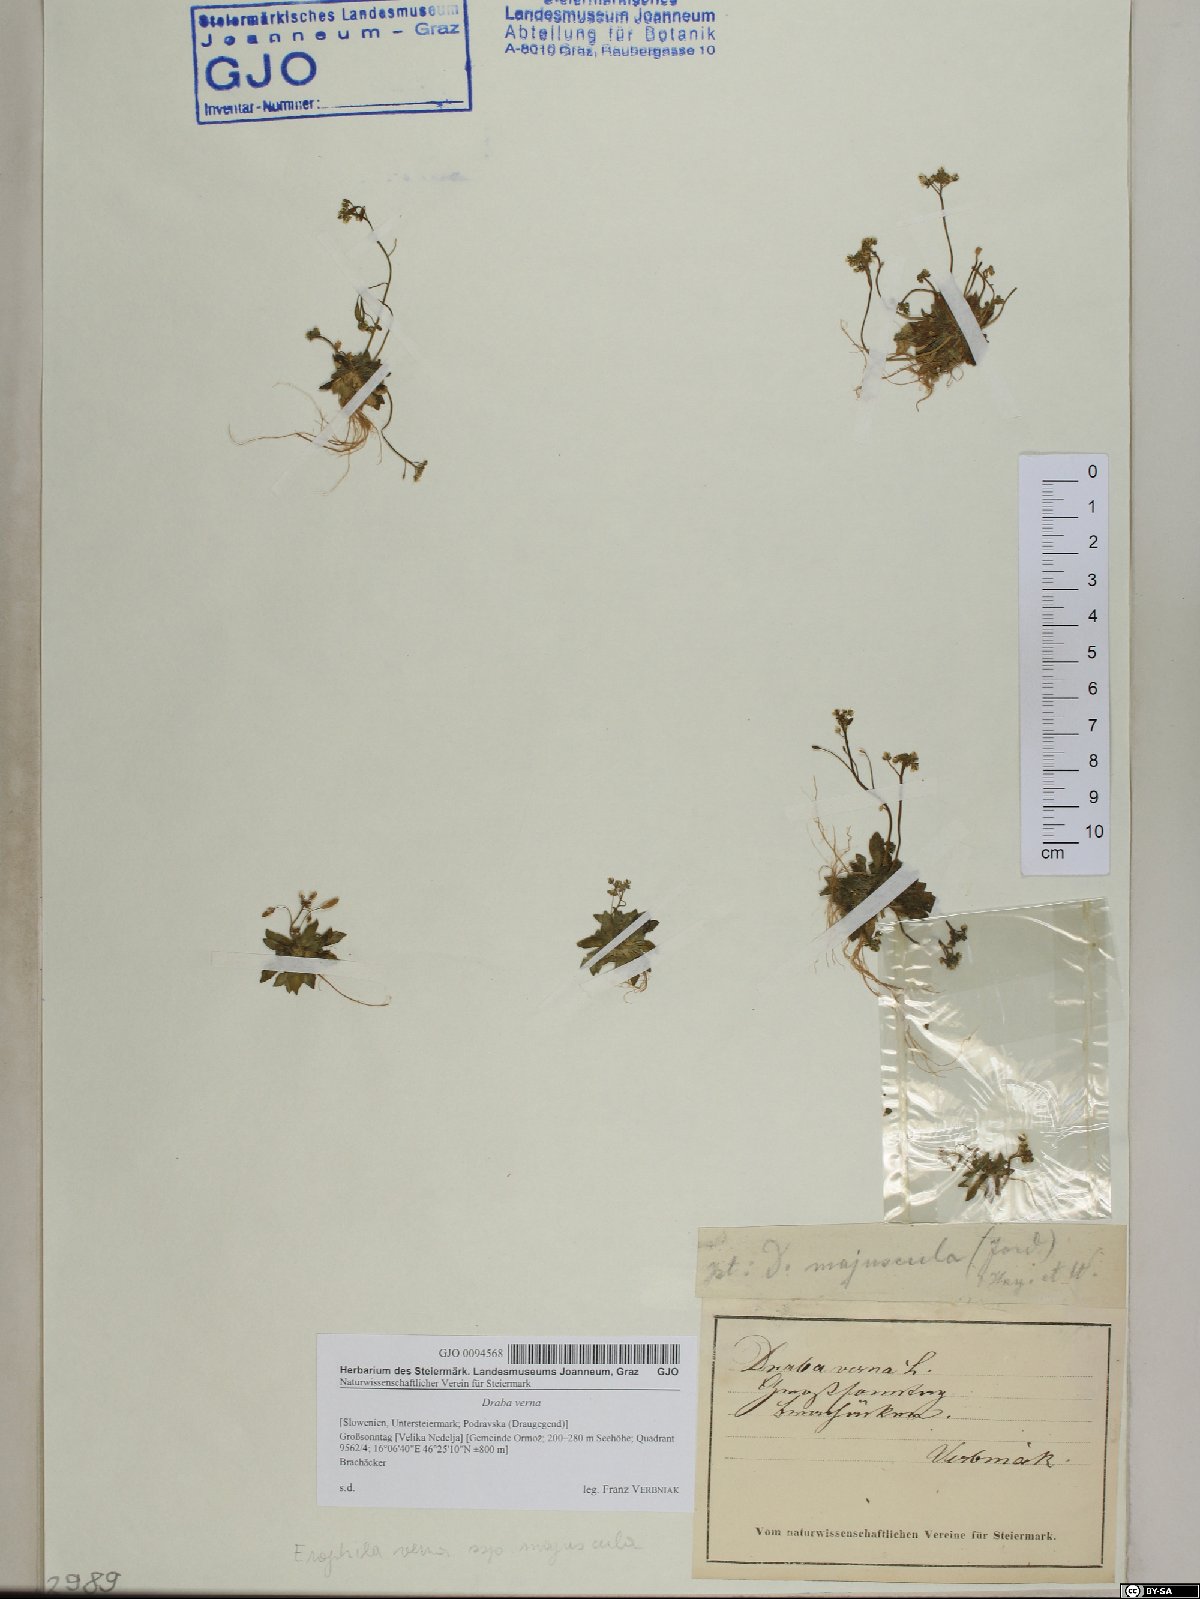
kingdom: Plantae
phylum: Tracheophyta
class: Magnoliopsida
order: Brassicales
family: Brassicaceae
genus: Draba
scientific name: Draba verna
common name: Spring draba
